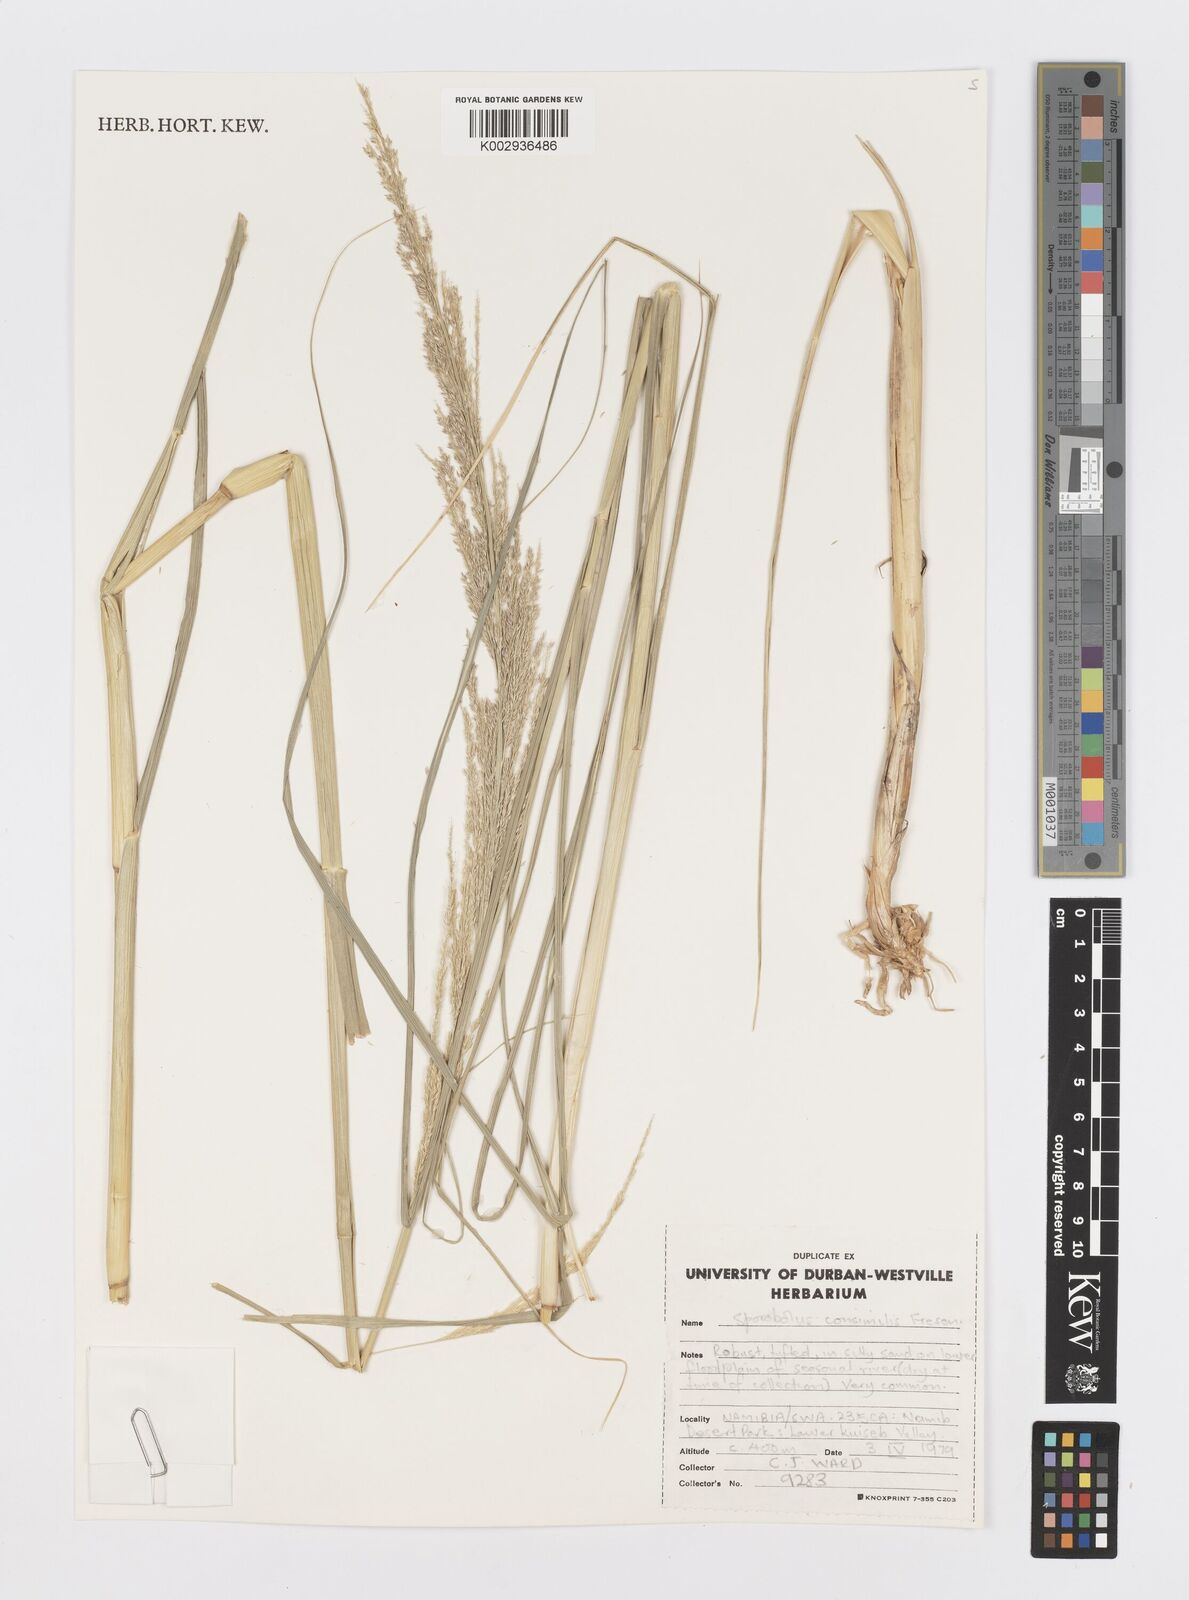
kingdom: Plantae
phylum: Tracheophyta
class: Liliopsida
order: Poales
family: Poaceae
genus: Sporobolus
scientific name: Sporobolus consimilis
